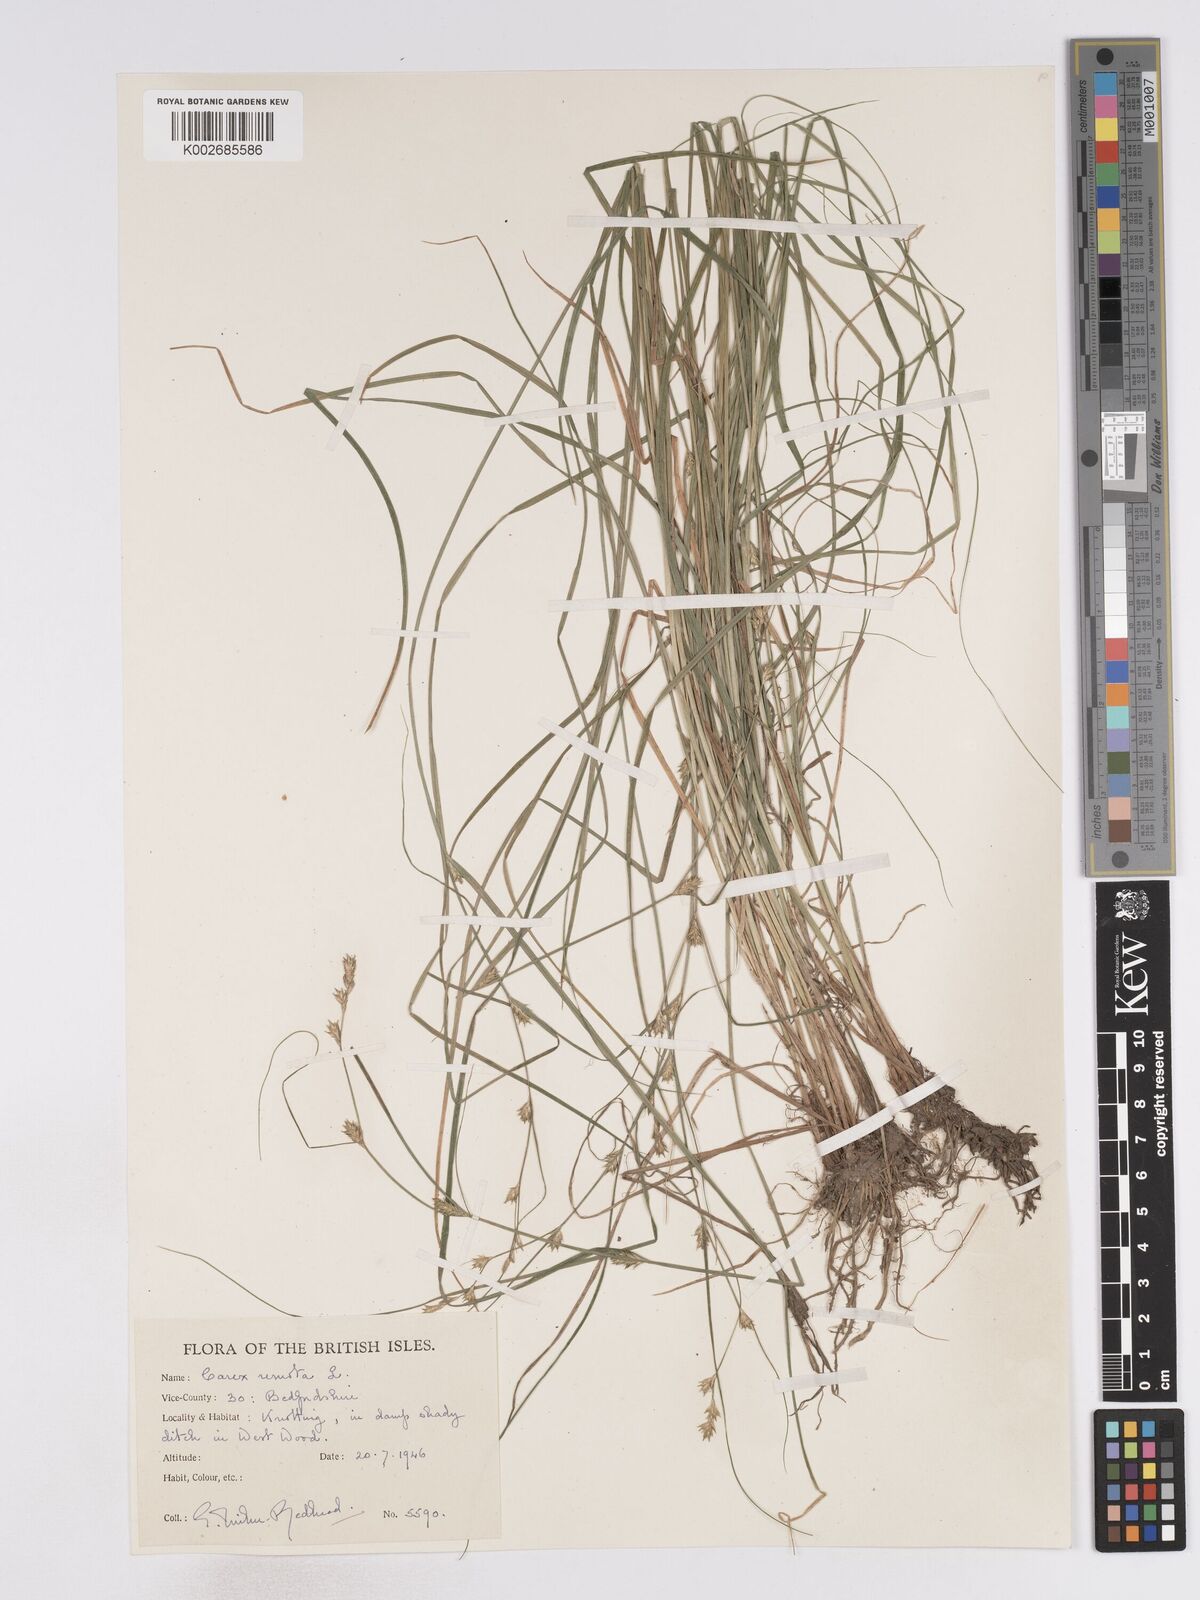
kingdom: Plantae
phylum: Tracheophyta
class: Liliopsida
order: Poales
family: Cyperaceae
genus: Carex
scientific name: Carex remota
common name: Remote sedge
